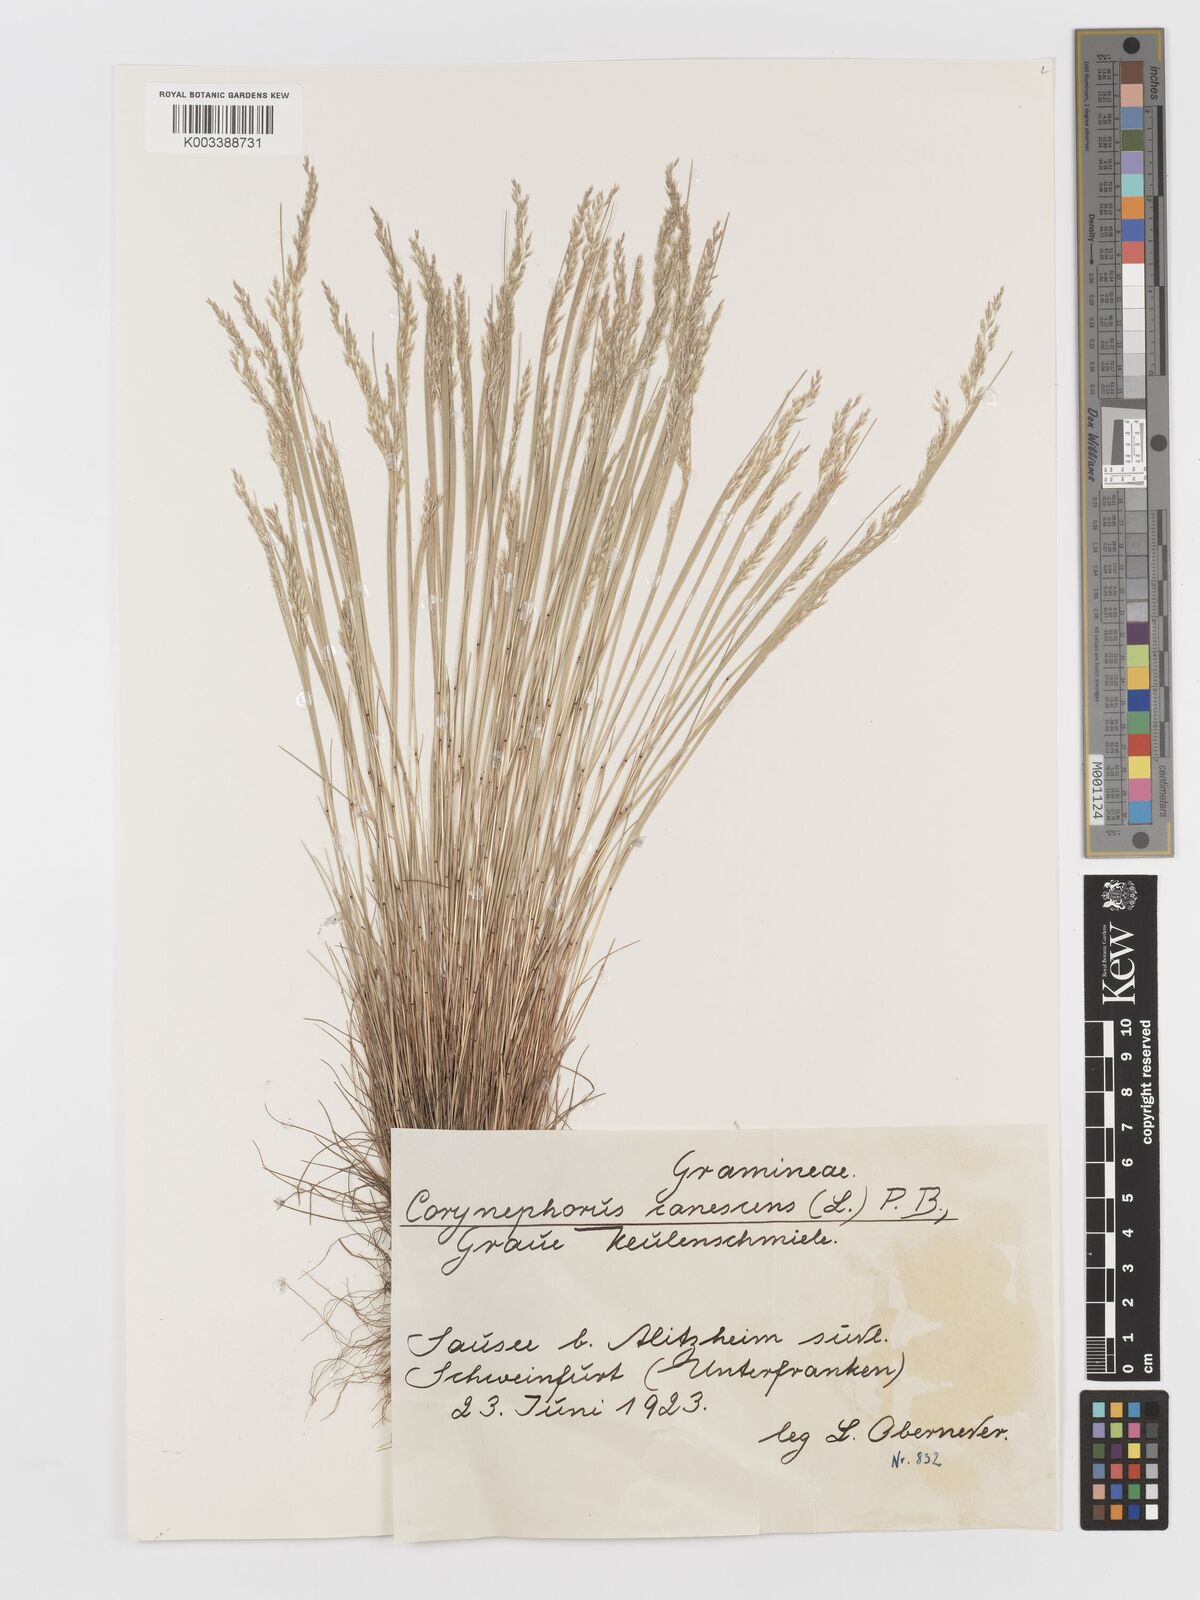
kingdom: Plantae
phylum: Tracheophyta
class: Liliopsida
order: Poales
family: Poaceae
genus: Corynephorus
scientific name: Corynephorus canescens
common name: Grey hair-grass
